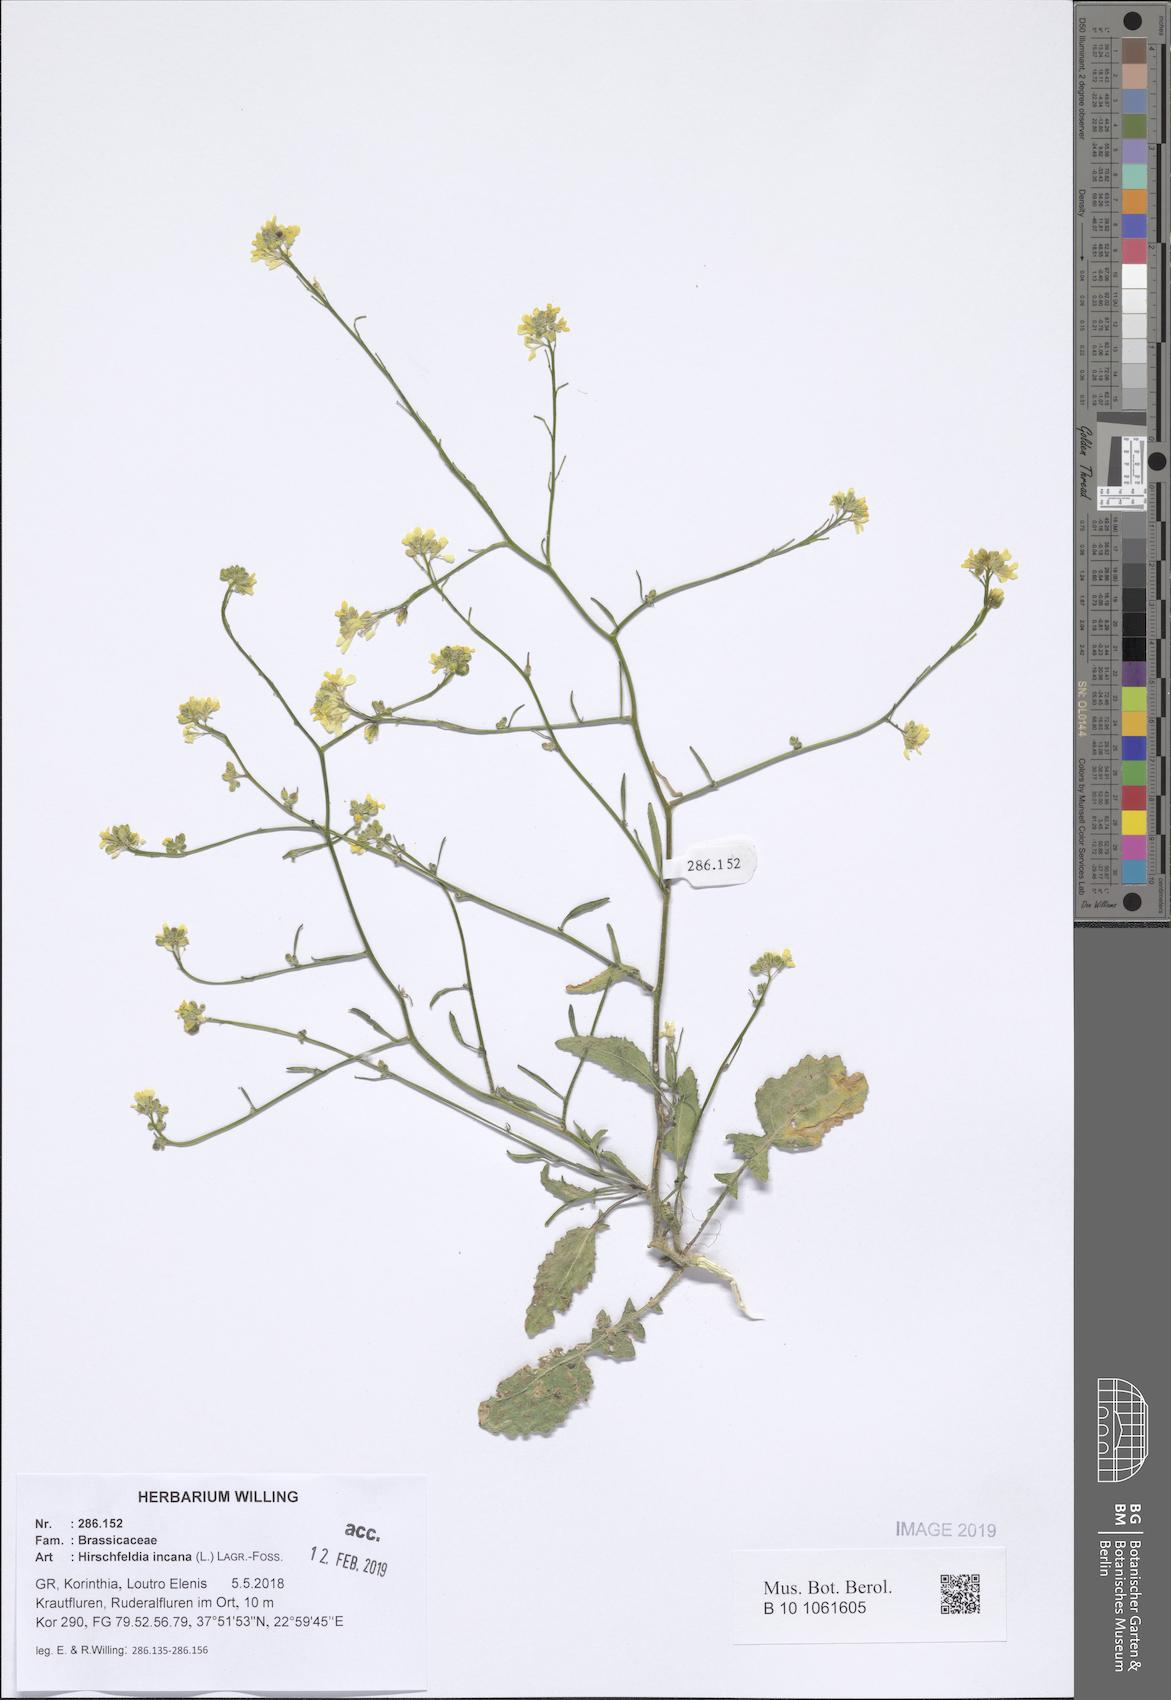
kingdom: Plantae
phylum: Tracheophyta
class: Magnoliopsida
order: Brassicales
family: Brassicaceae
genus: Hirschfeldia
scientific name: Hirschfeldia incana
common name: Hoary mustard
